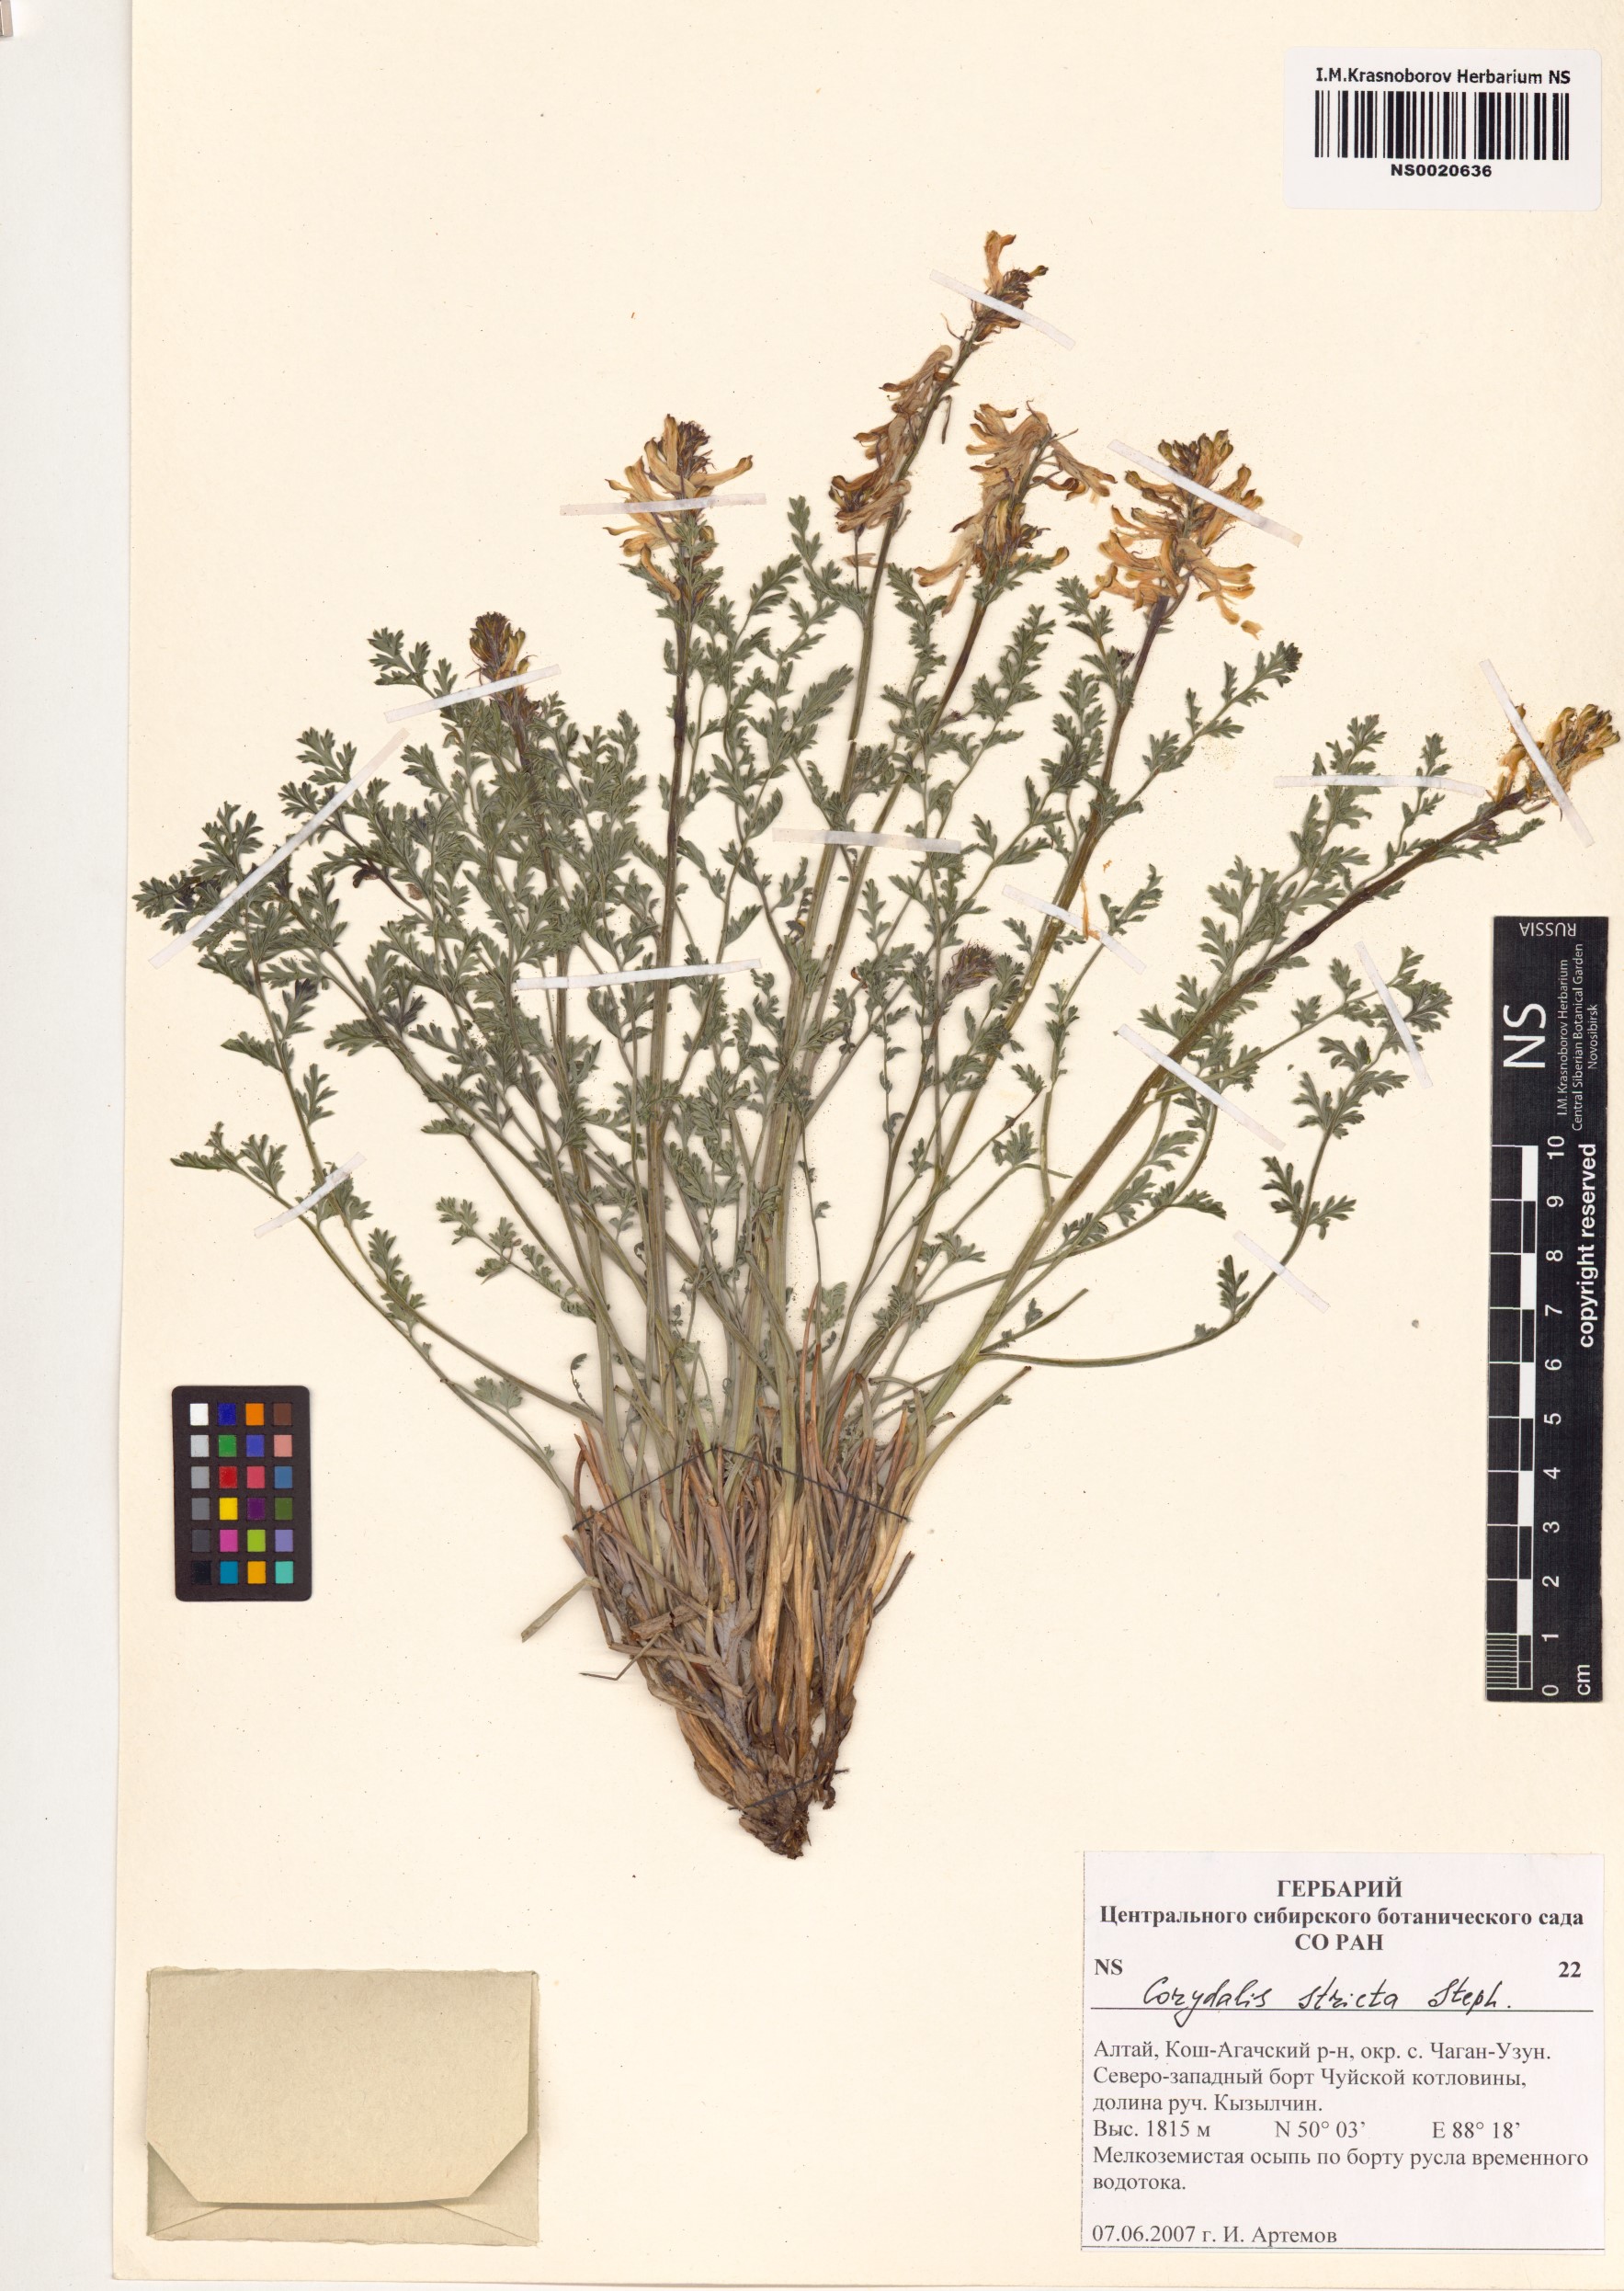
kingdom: Plantae
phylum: Tracheophyta
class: Magnoliopsida
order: Ranunculales
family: Papaveraceae
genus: Corydalis
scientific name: Corydalis stricta
